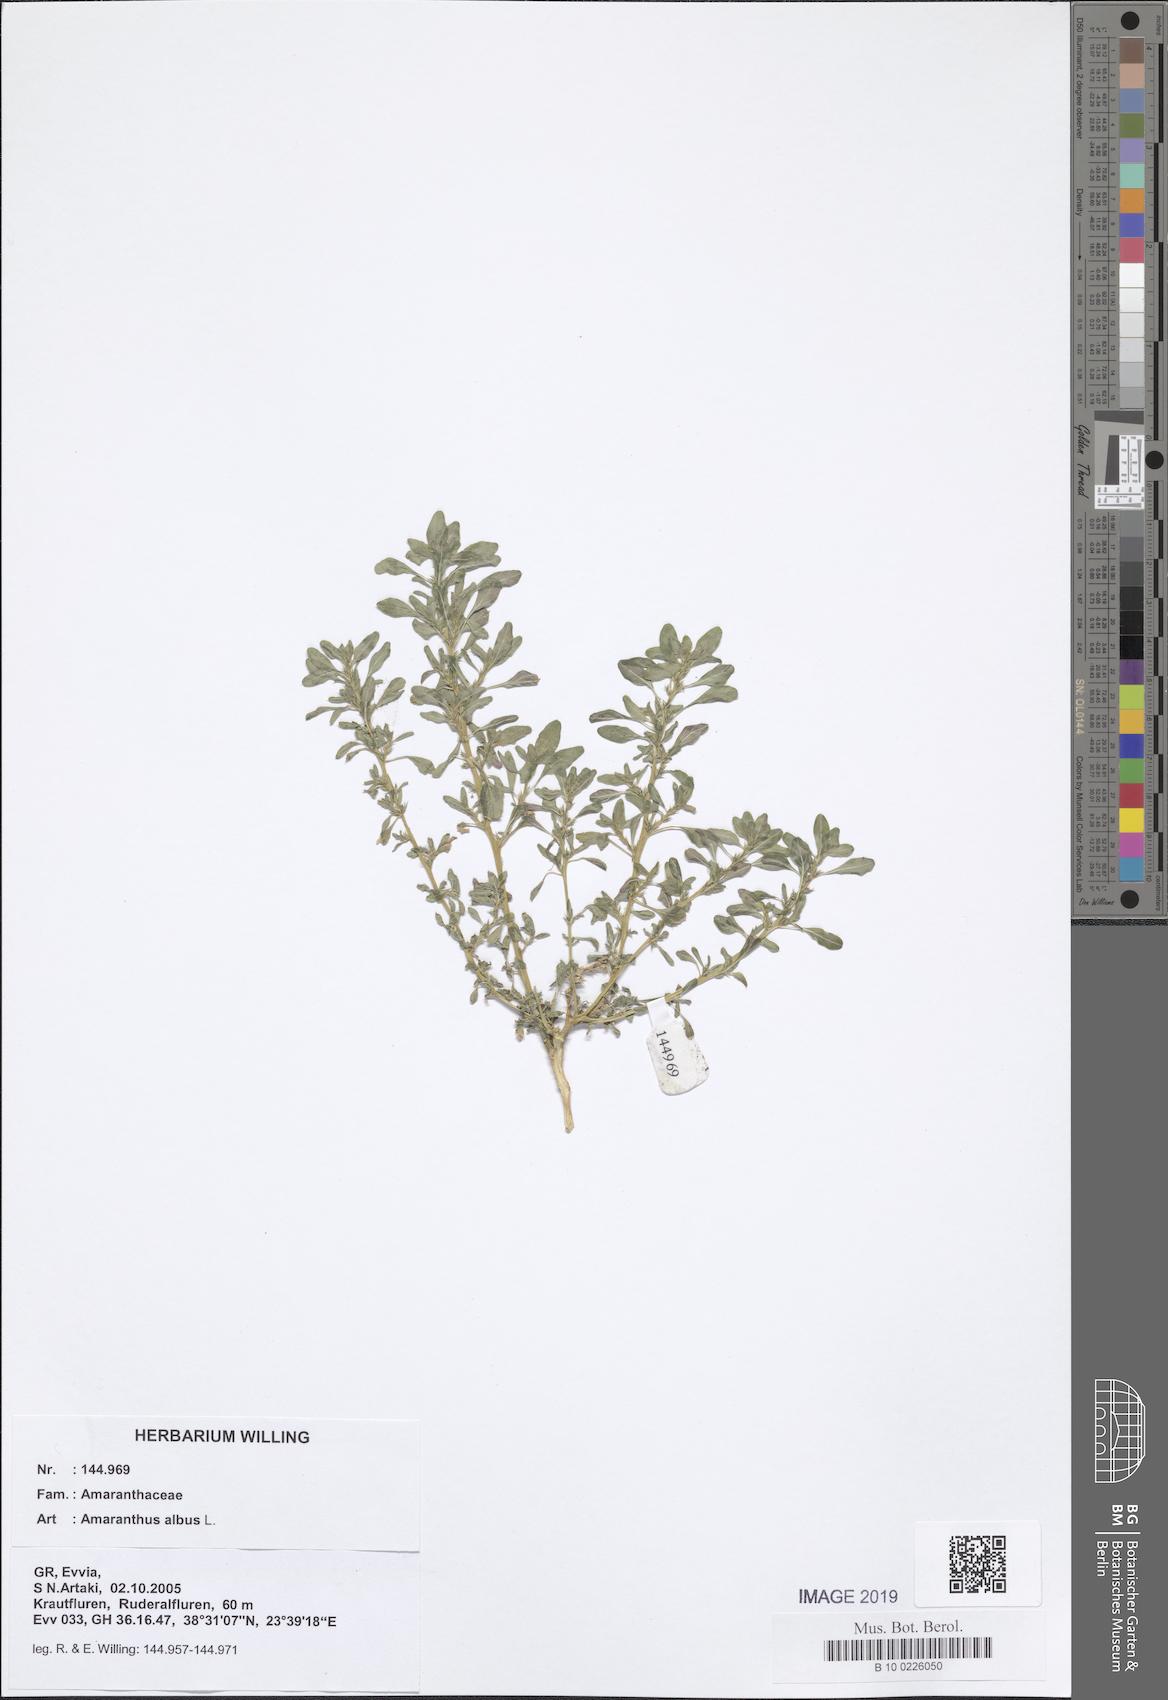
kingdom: Plantae
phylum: Tracheophyta
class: Magnoliopsida
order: Caryophyllales
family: Amaranthaceae
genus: Amaranthus
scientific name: Amaranthus albus
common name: White pigweed
